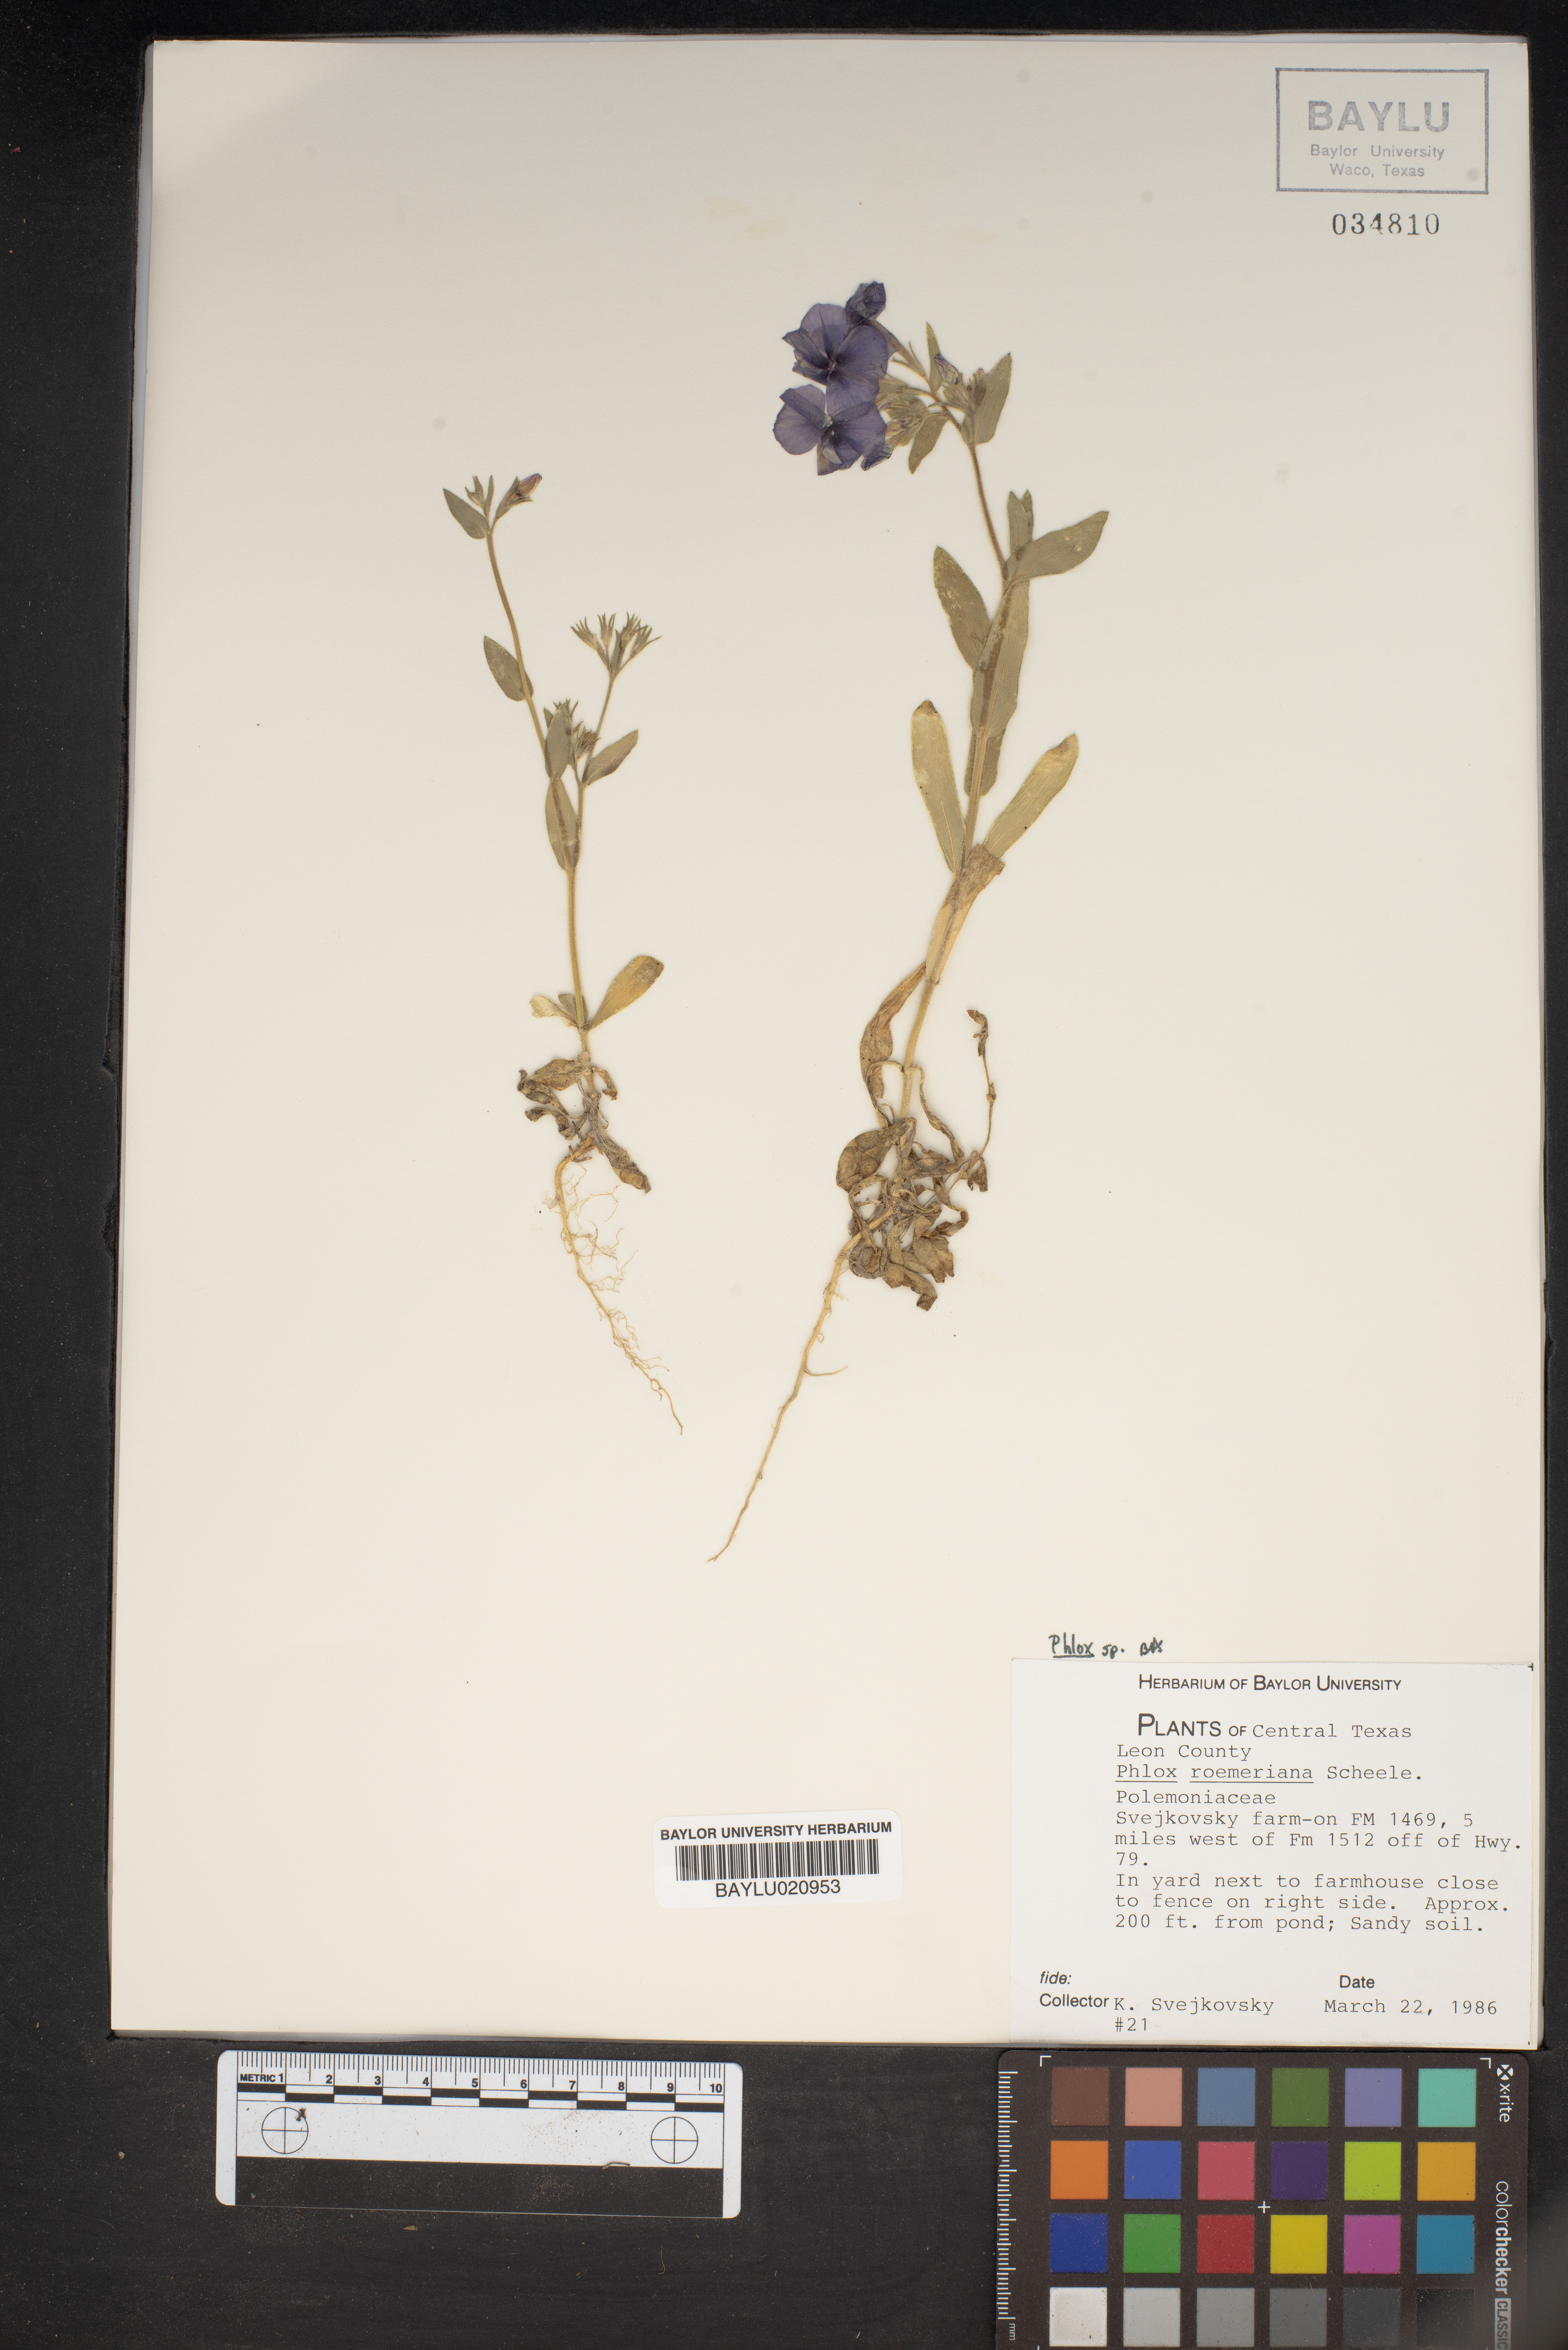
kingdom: Plantae
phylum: Tracheophyta
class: Magnoliopsida
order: Ericales
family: Polemoniaceae
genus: Phlox
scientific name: Phlox roemeriana
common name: Roemer's phlox
